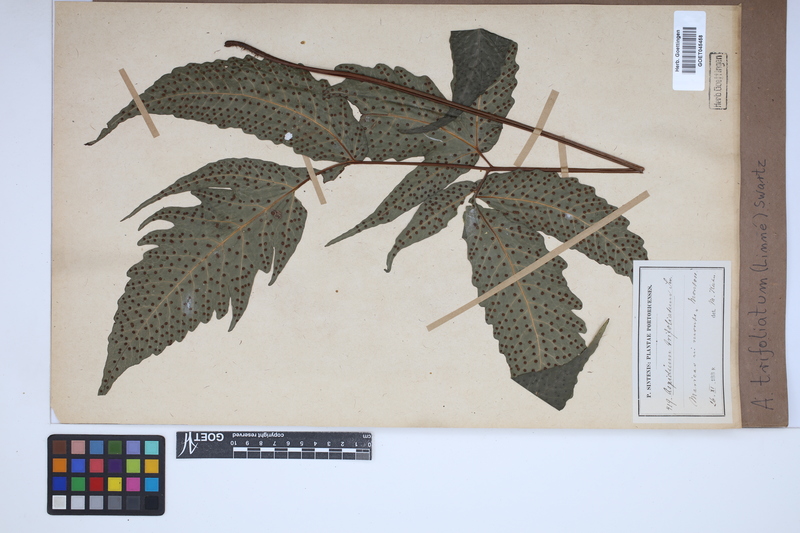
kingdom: Plantae
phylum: Tracheophyta
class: Polypodiopsida
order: Polypodiales
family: Tectariaceae
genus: Tectaria
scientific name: Tectaria trifoliata
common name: Threeleaf halberd fern
